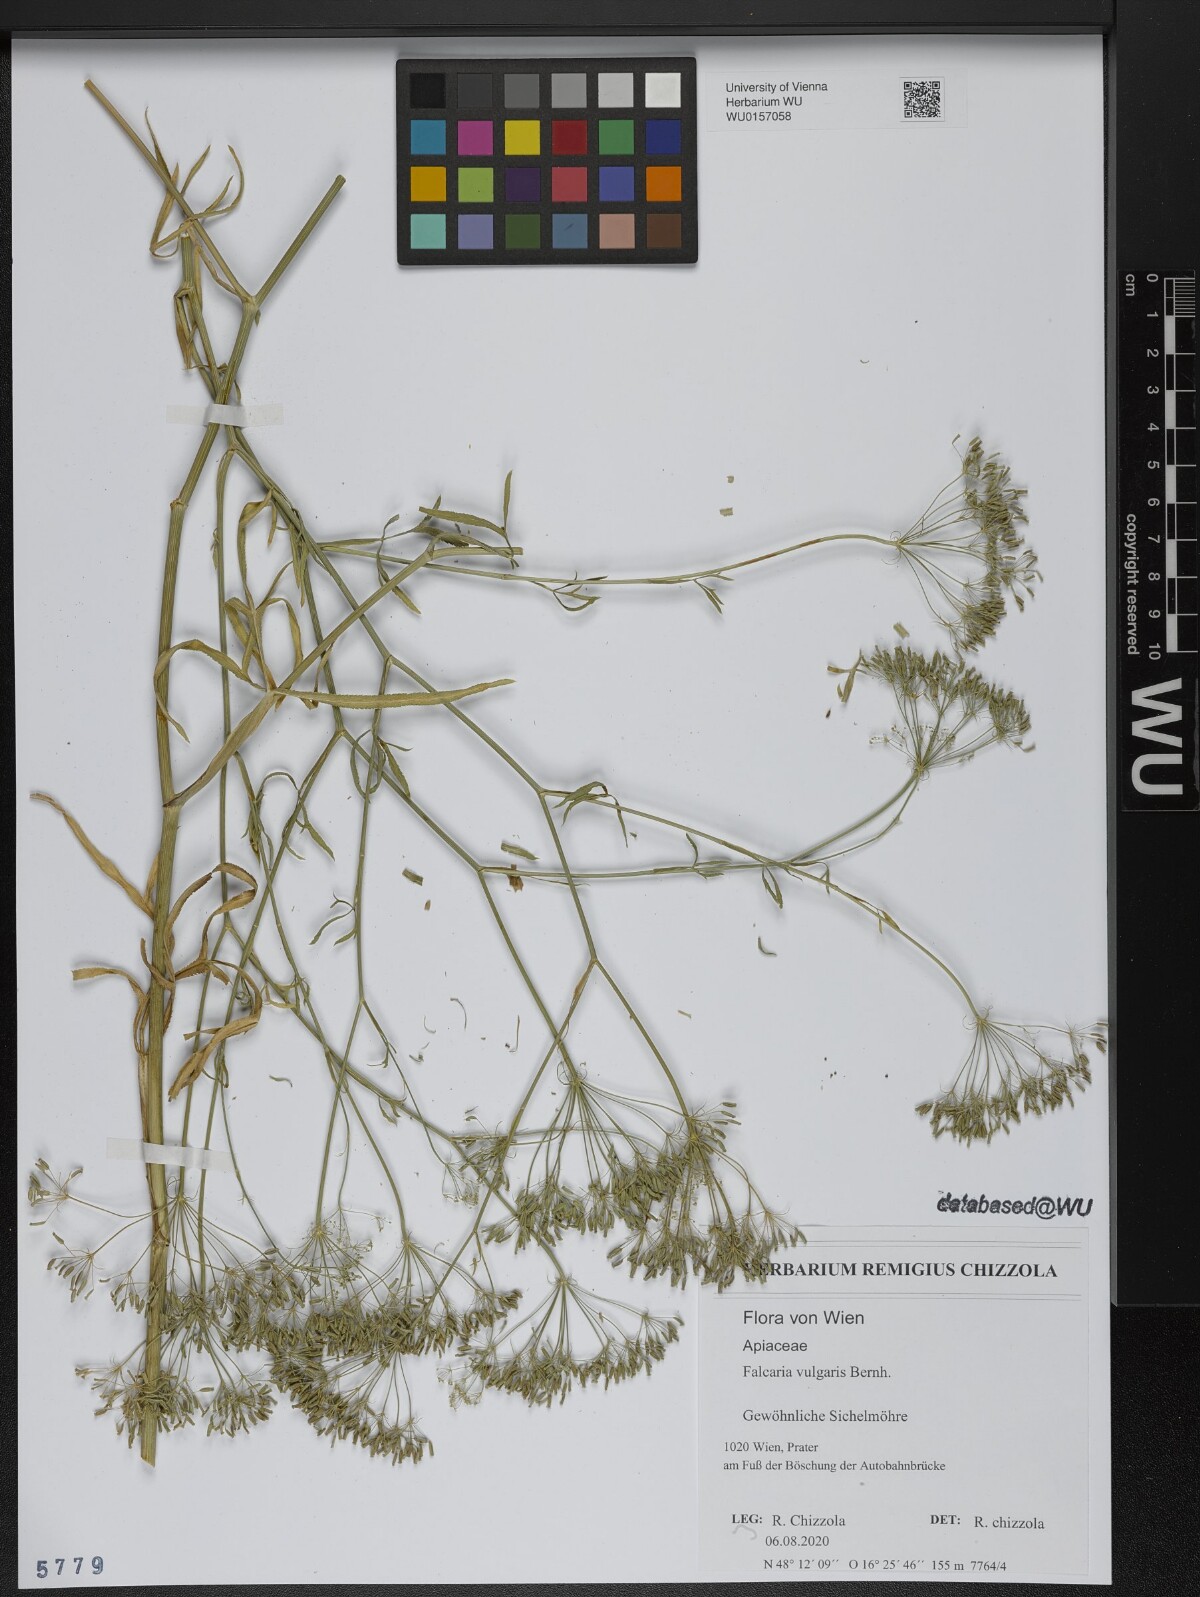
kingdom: Plantae
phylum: Tracheophyta
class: Magnoliopsida
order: Apiales
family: Apiaceae
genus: Falcaria
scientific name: Falcaria vulgaris
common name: Longleaf
